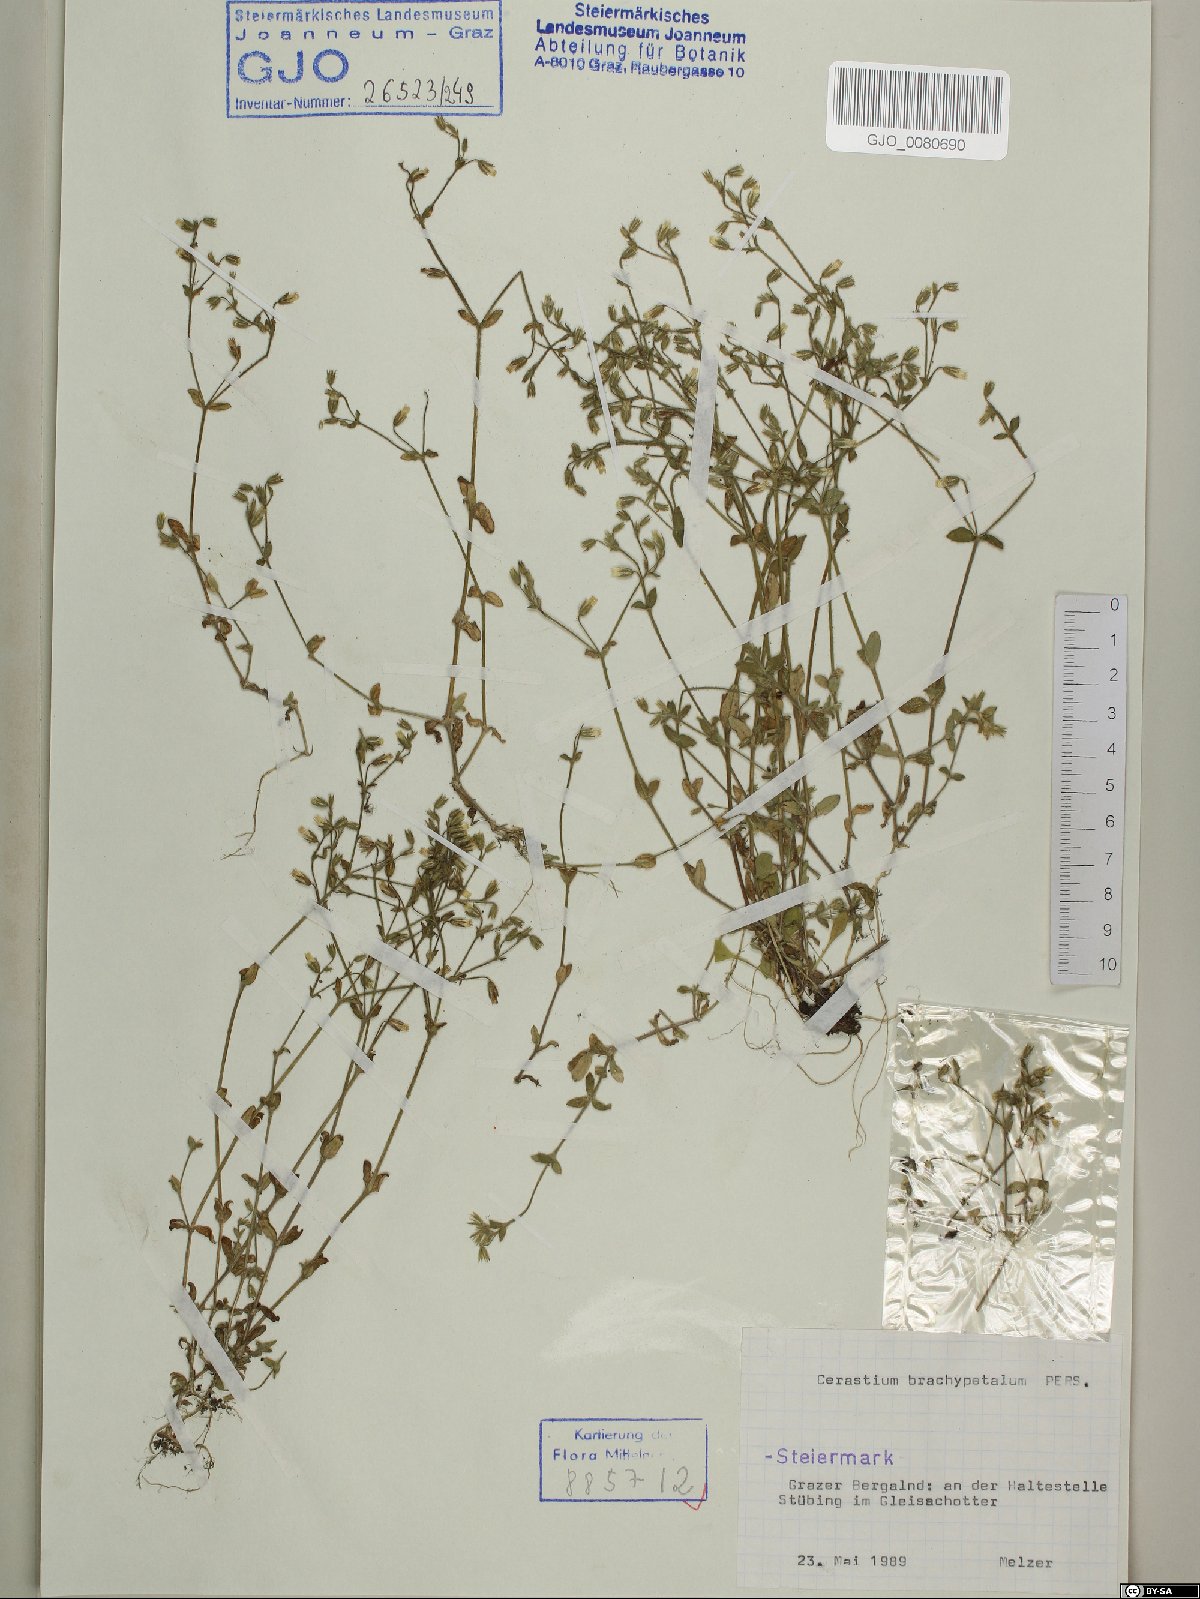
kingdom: Plantae
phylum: Tracheophyta
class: Magnoliopsida
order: Caryophyllales
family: Caryophyllaceae
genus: Cerastium
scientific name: Cerastium brachypetalum
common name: Grey mouse-ear
